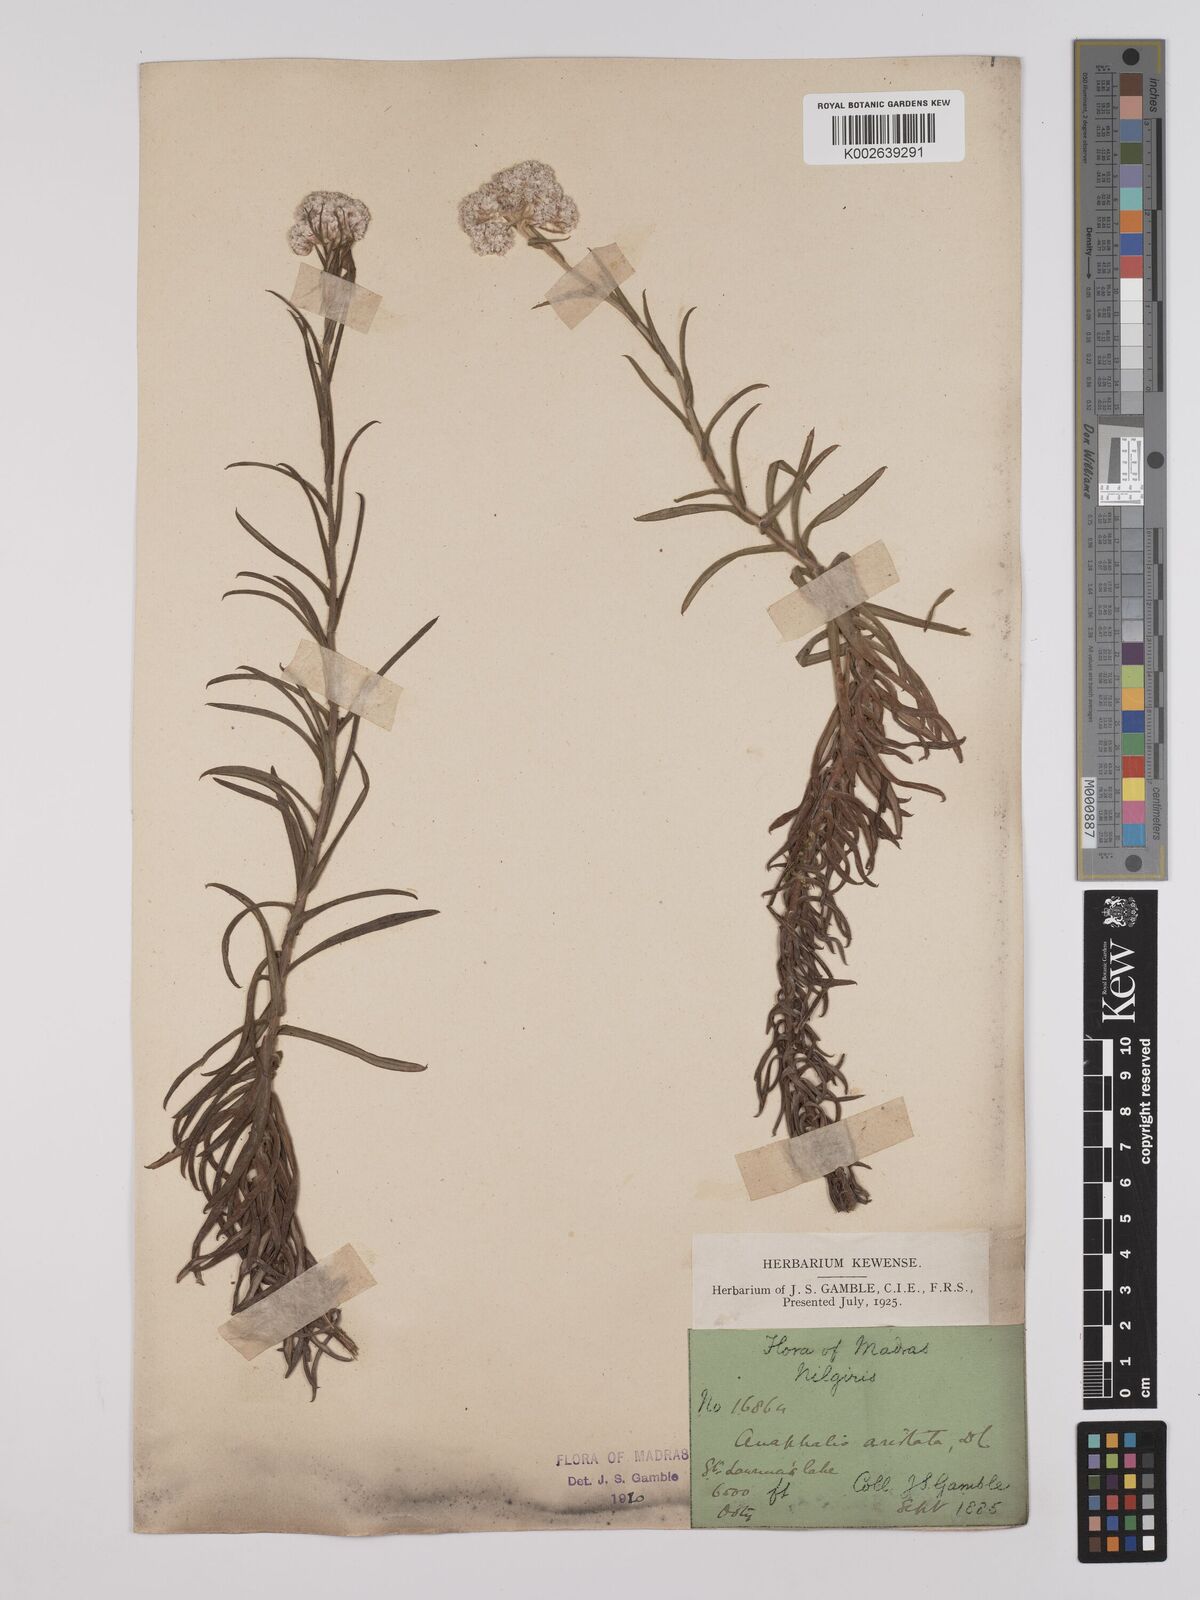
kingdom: Plantae
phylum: Tracheophyta
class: Magnoliopsida
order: Asterales
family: Asteraceae
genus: Anaphalis
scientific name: Anaphalis aristata
